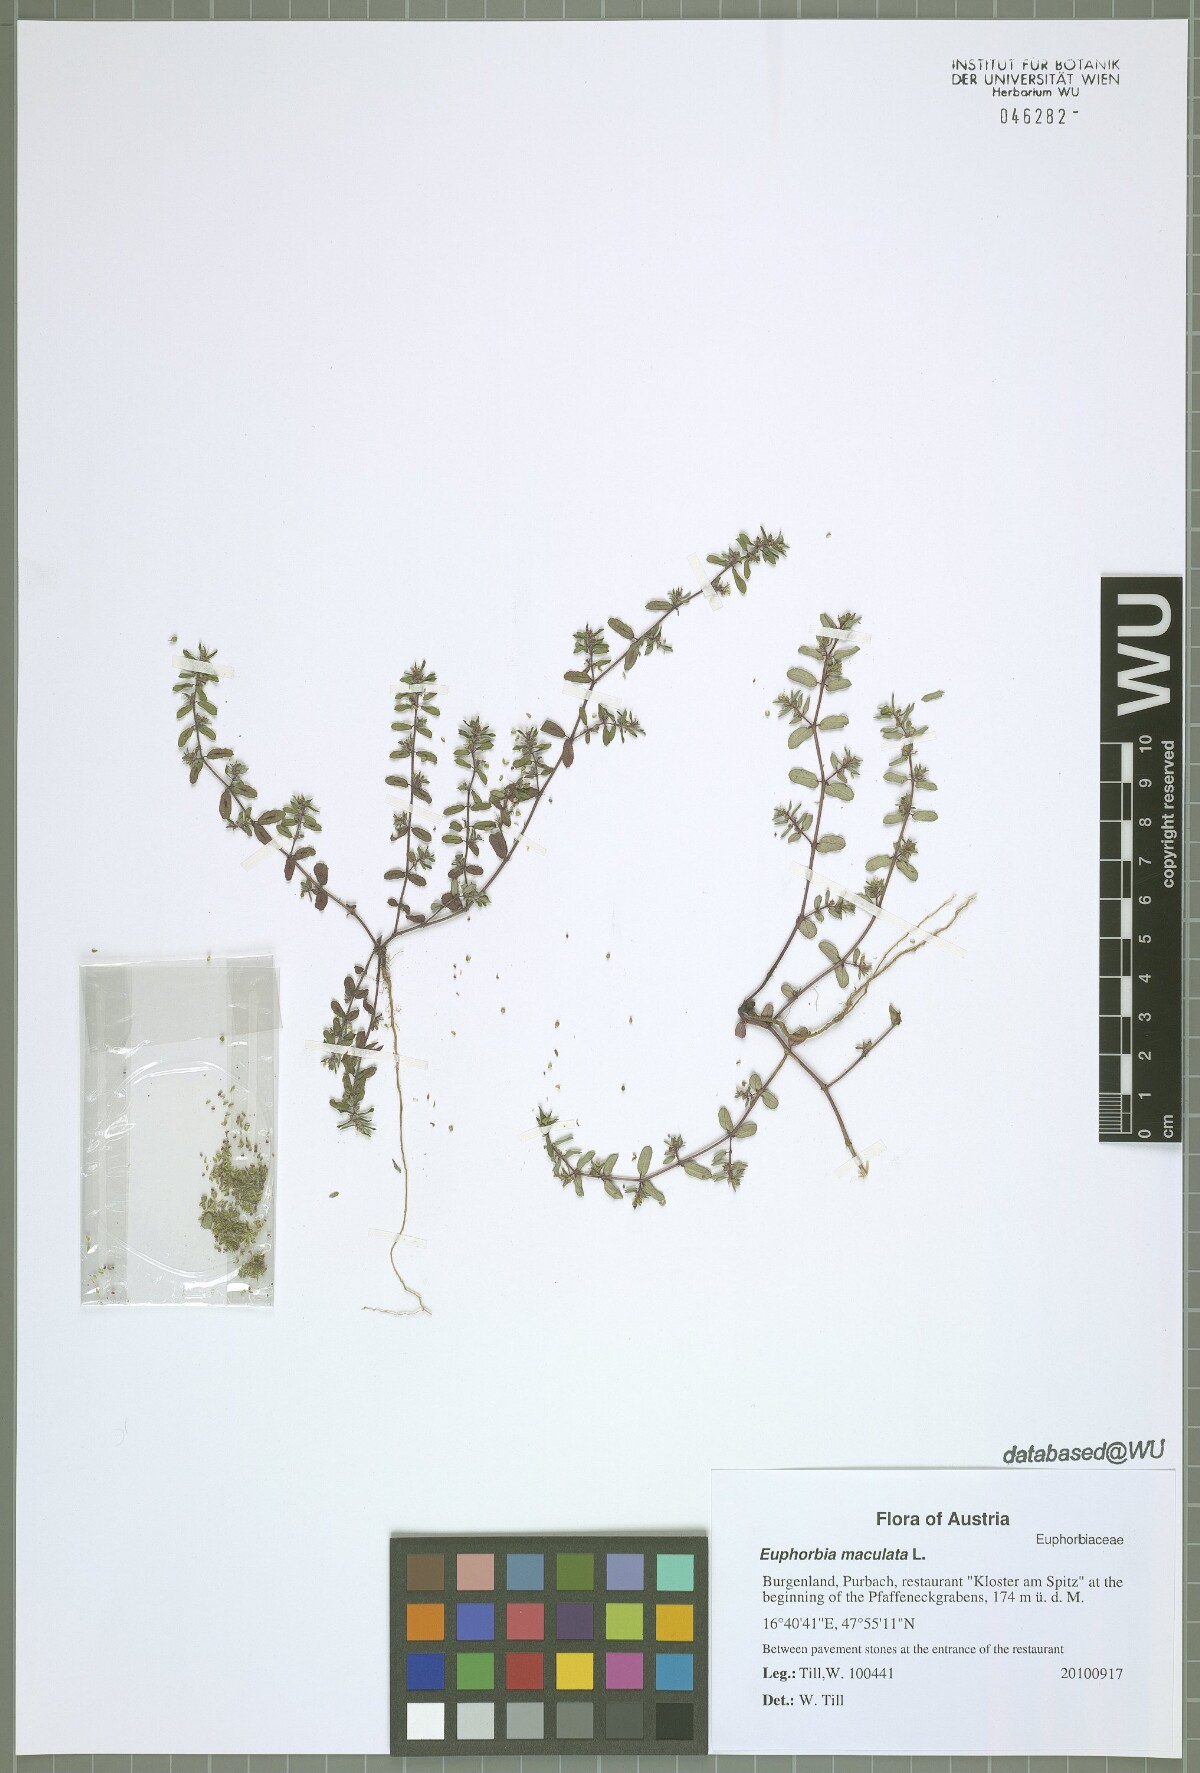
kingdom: Plantae
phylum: Tracheophyta
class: Magnoliopsida
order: Malpighiales
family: Euphorbiaceae
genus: Euphorbia
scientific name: Euphorbia maculata
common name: Spotted spurge
